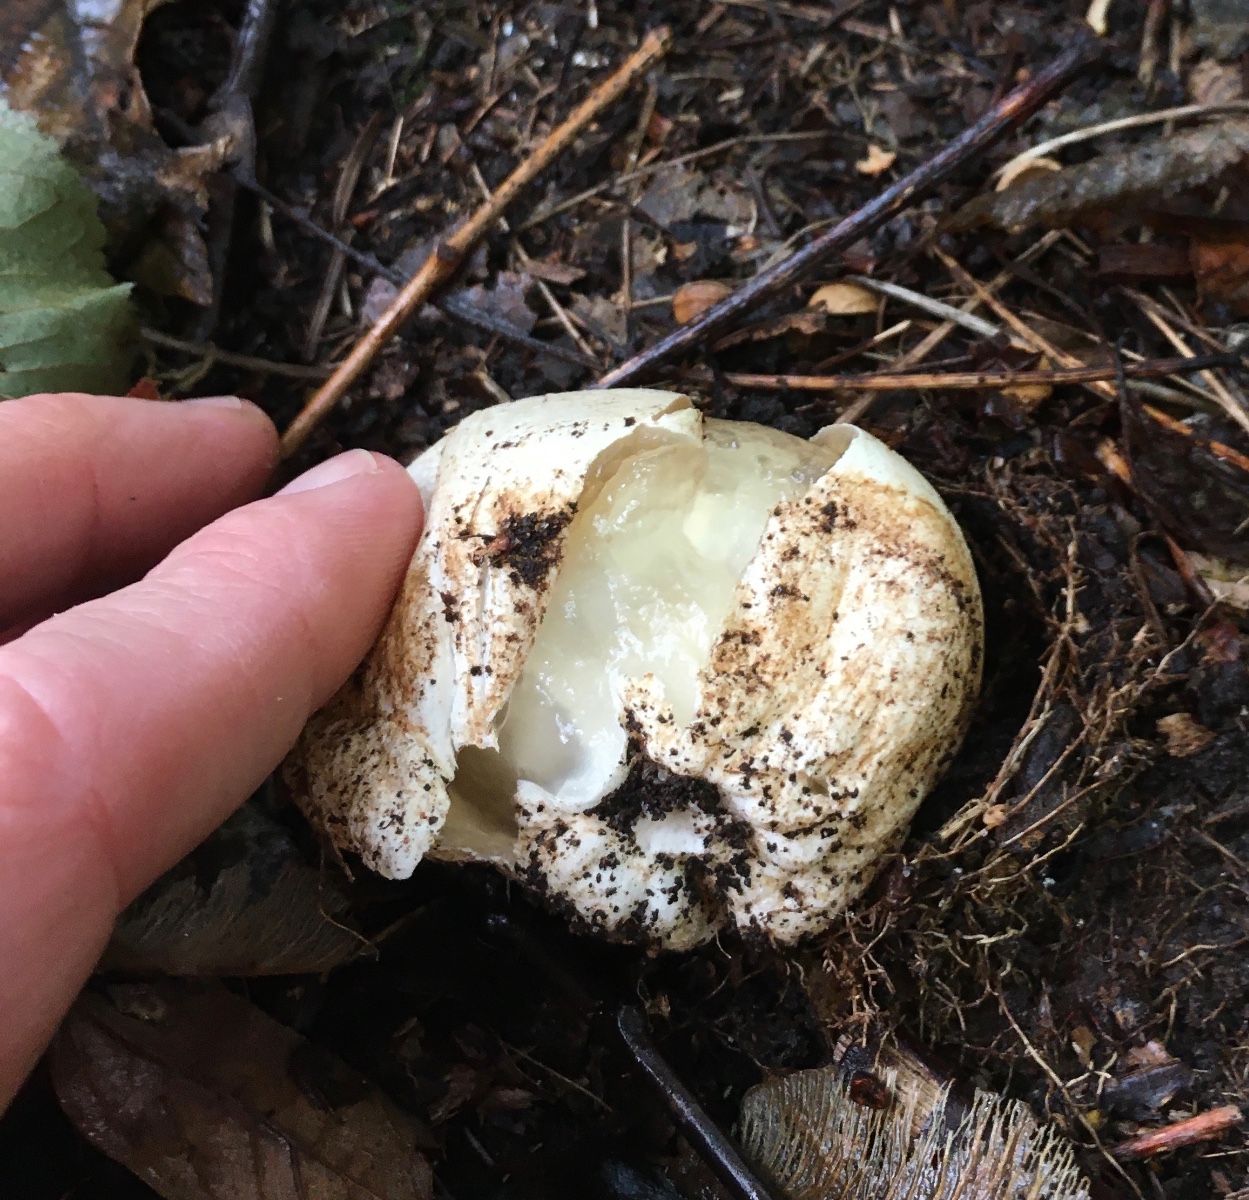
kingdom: Fungi
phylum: Basidiomycota
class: Agaricomycetes
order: Phallales
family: Phallaceae
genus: Phallus
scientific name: Phallus impudicus
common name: almindelig stinksvamp
